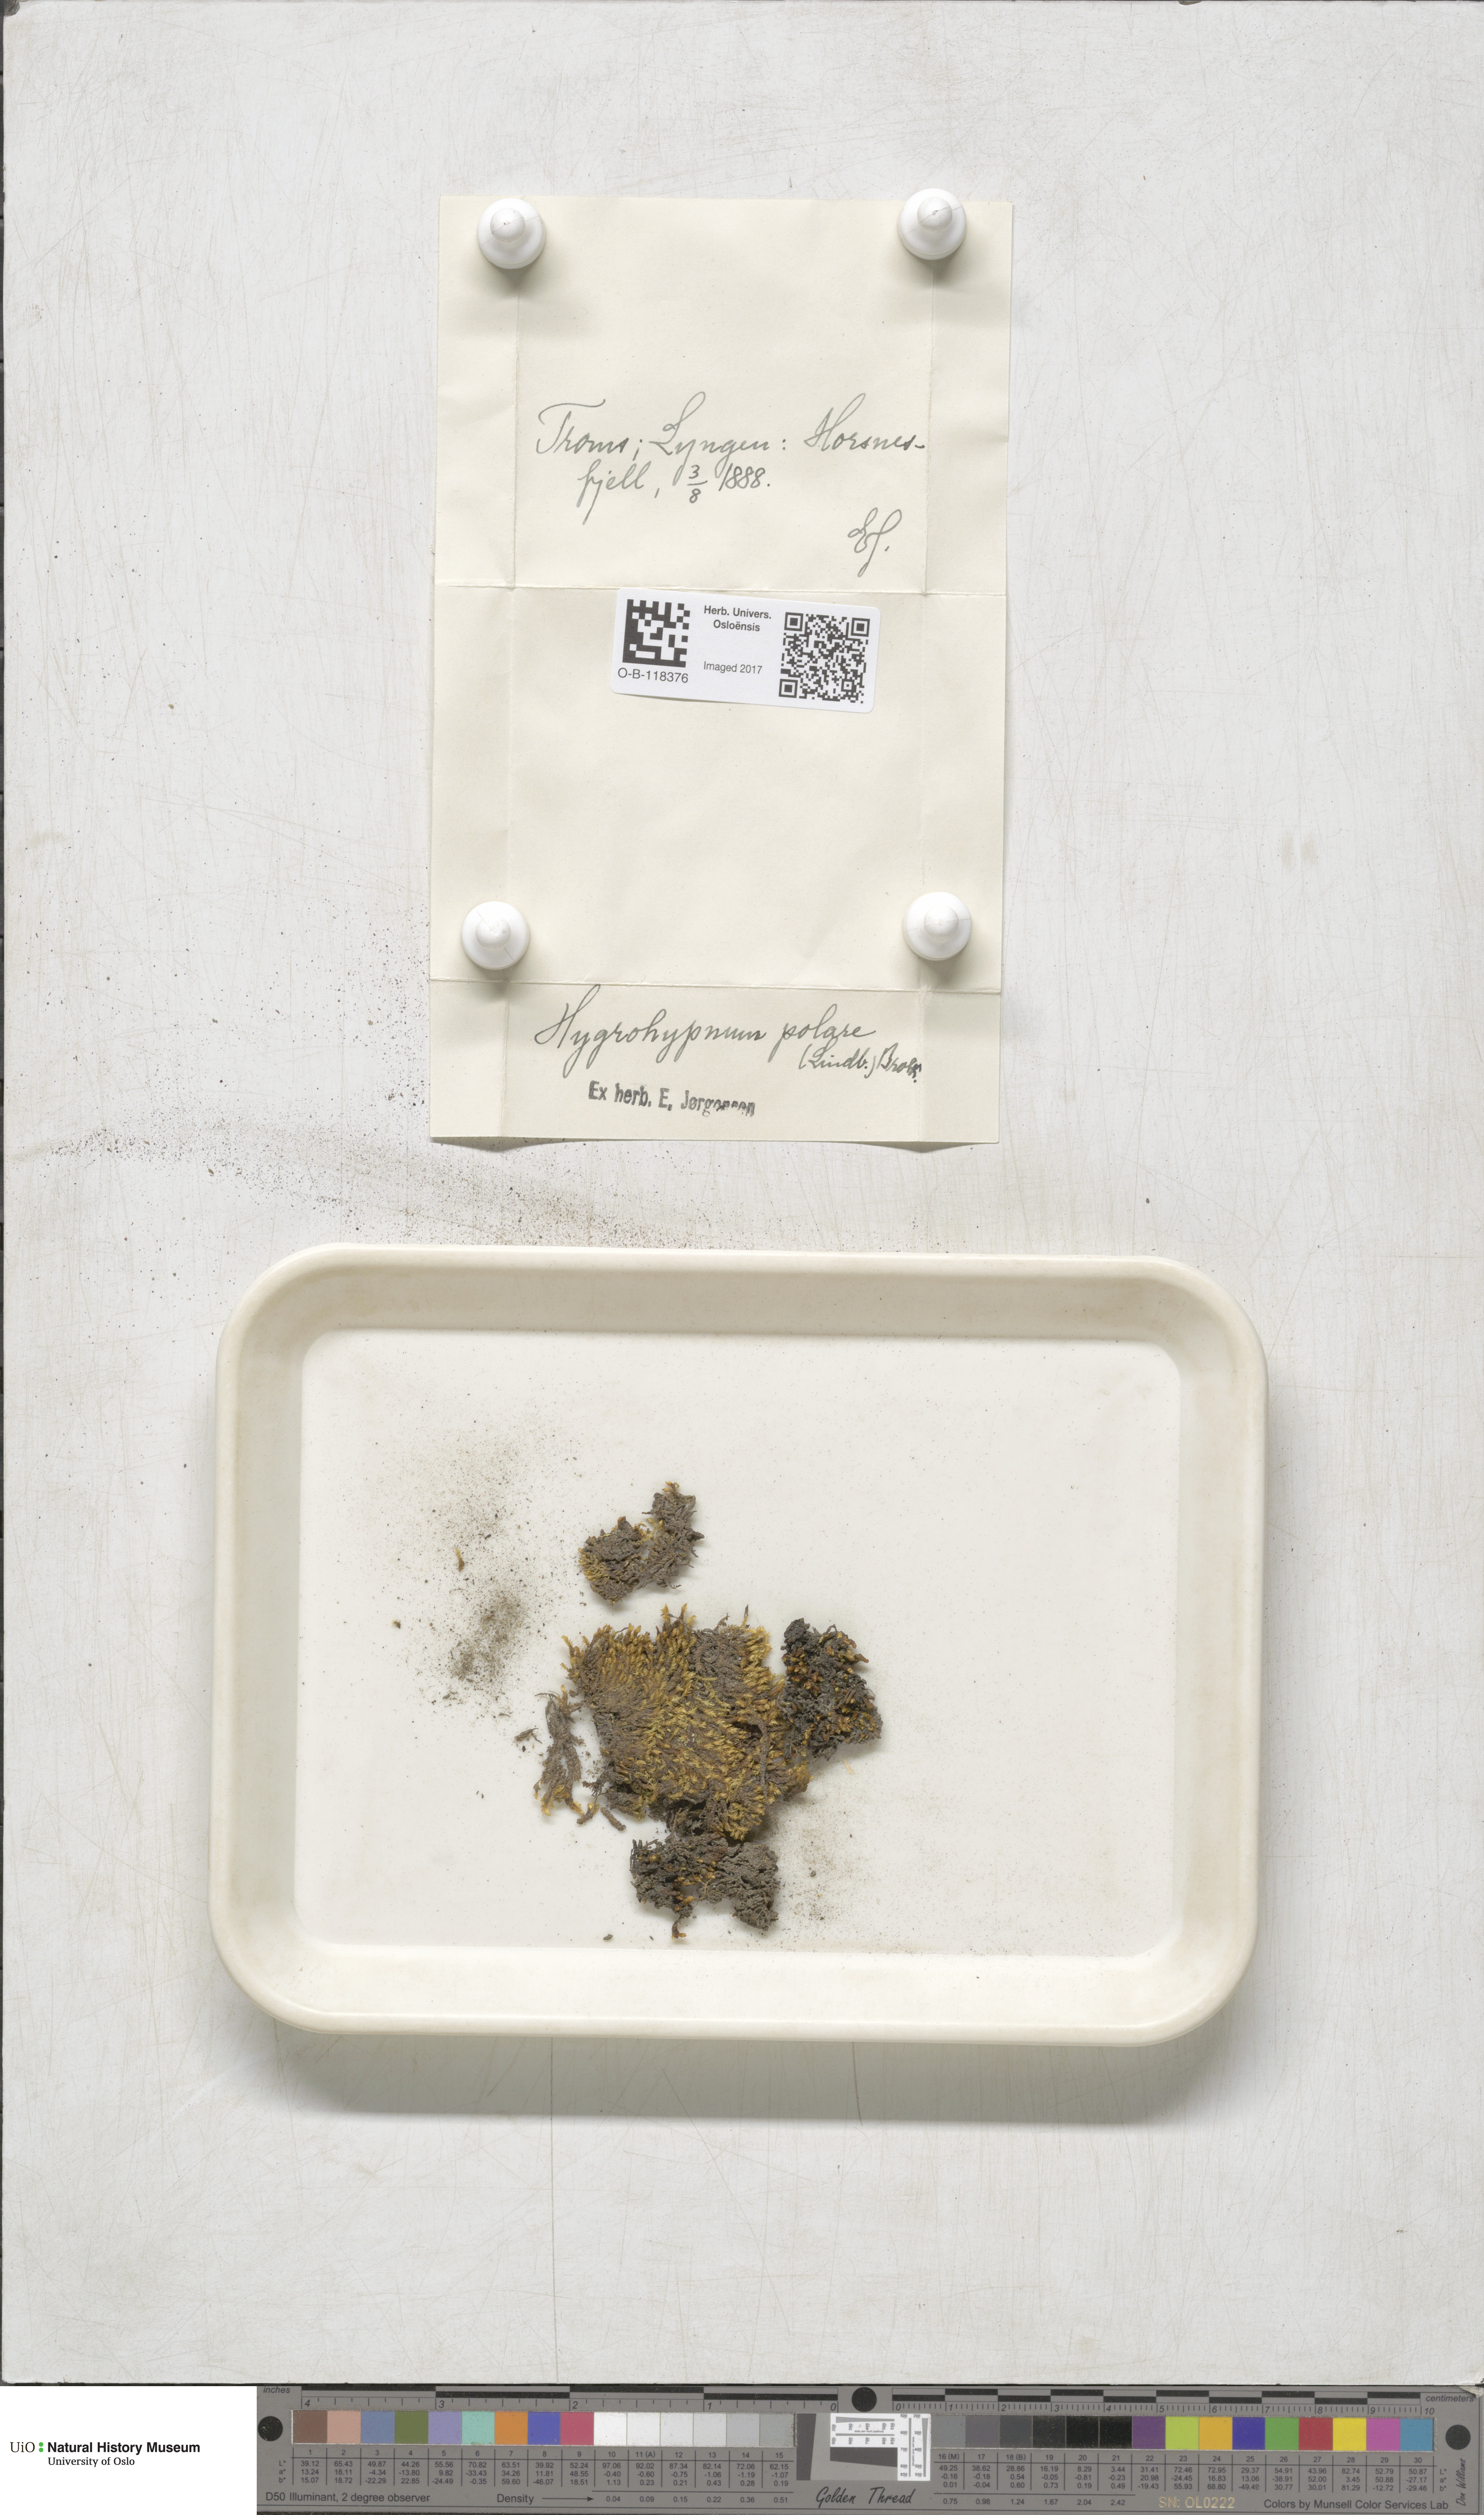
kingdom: Plantae
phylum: Bryophyta
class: Bryopsida
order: Hypnales
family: Scorpidiaceae
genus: Hygrohypnella
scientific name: Hygrohypnella polaris
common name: Polar brook-moss
